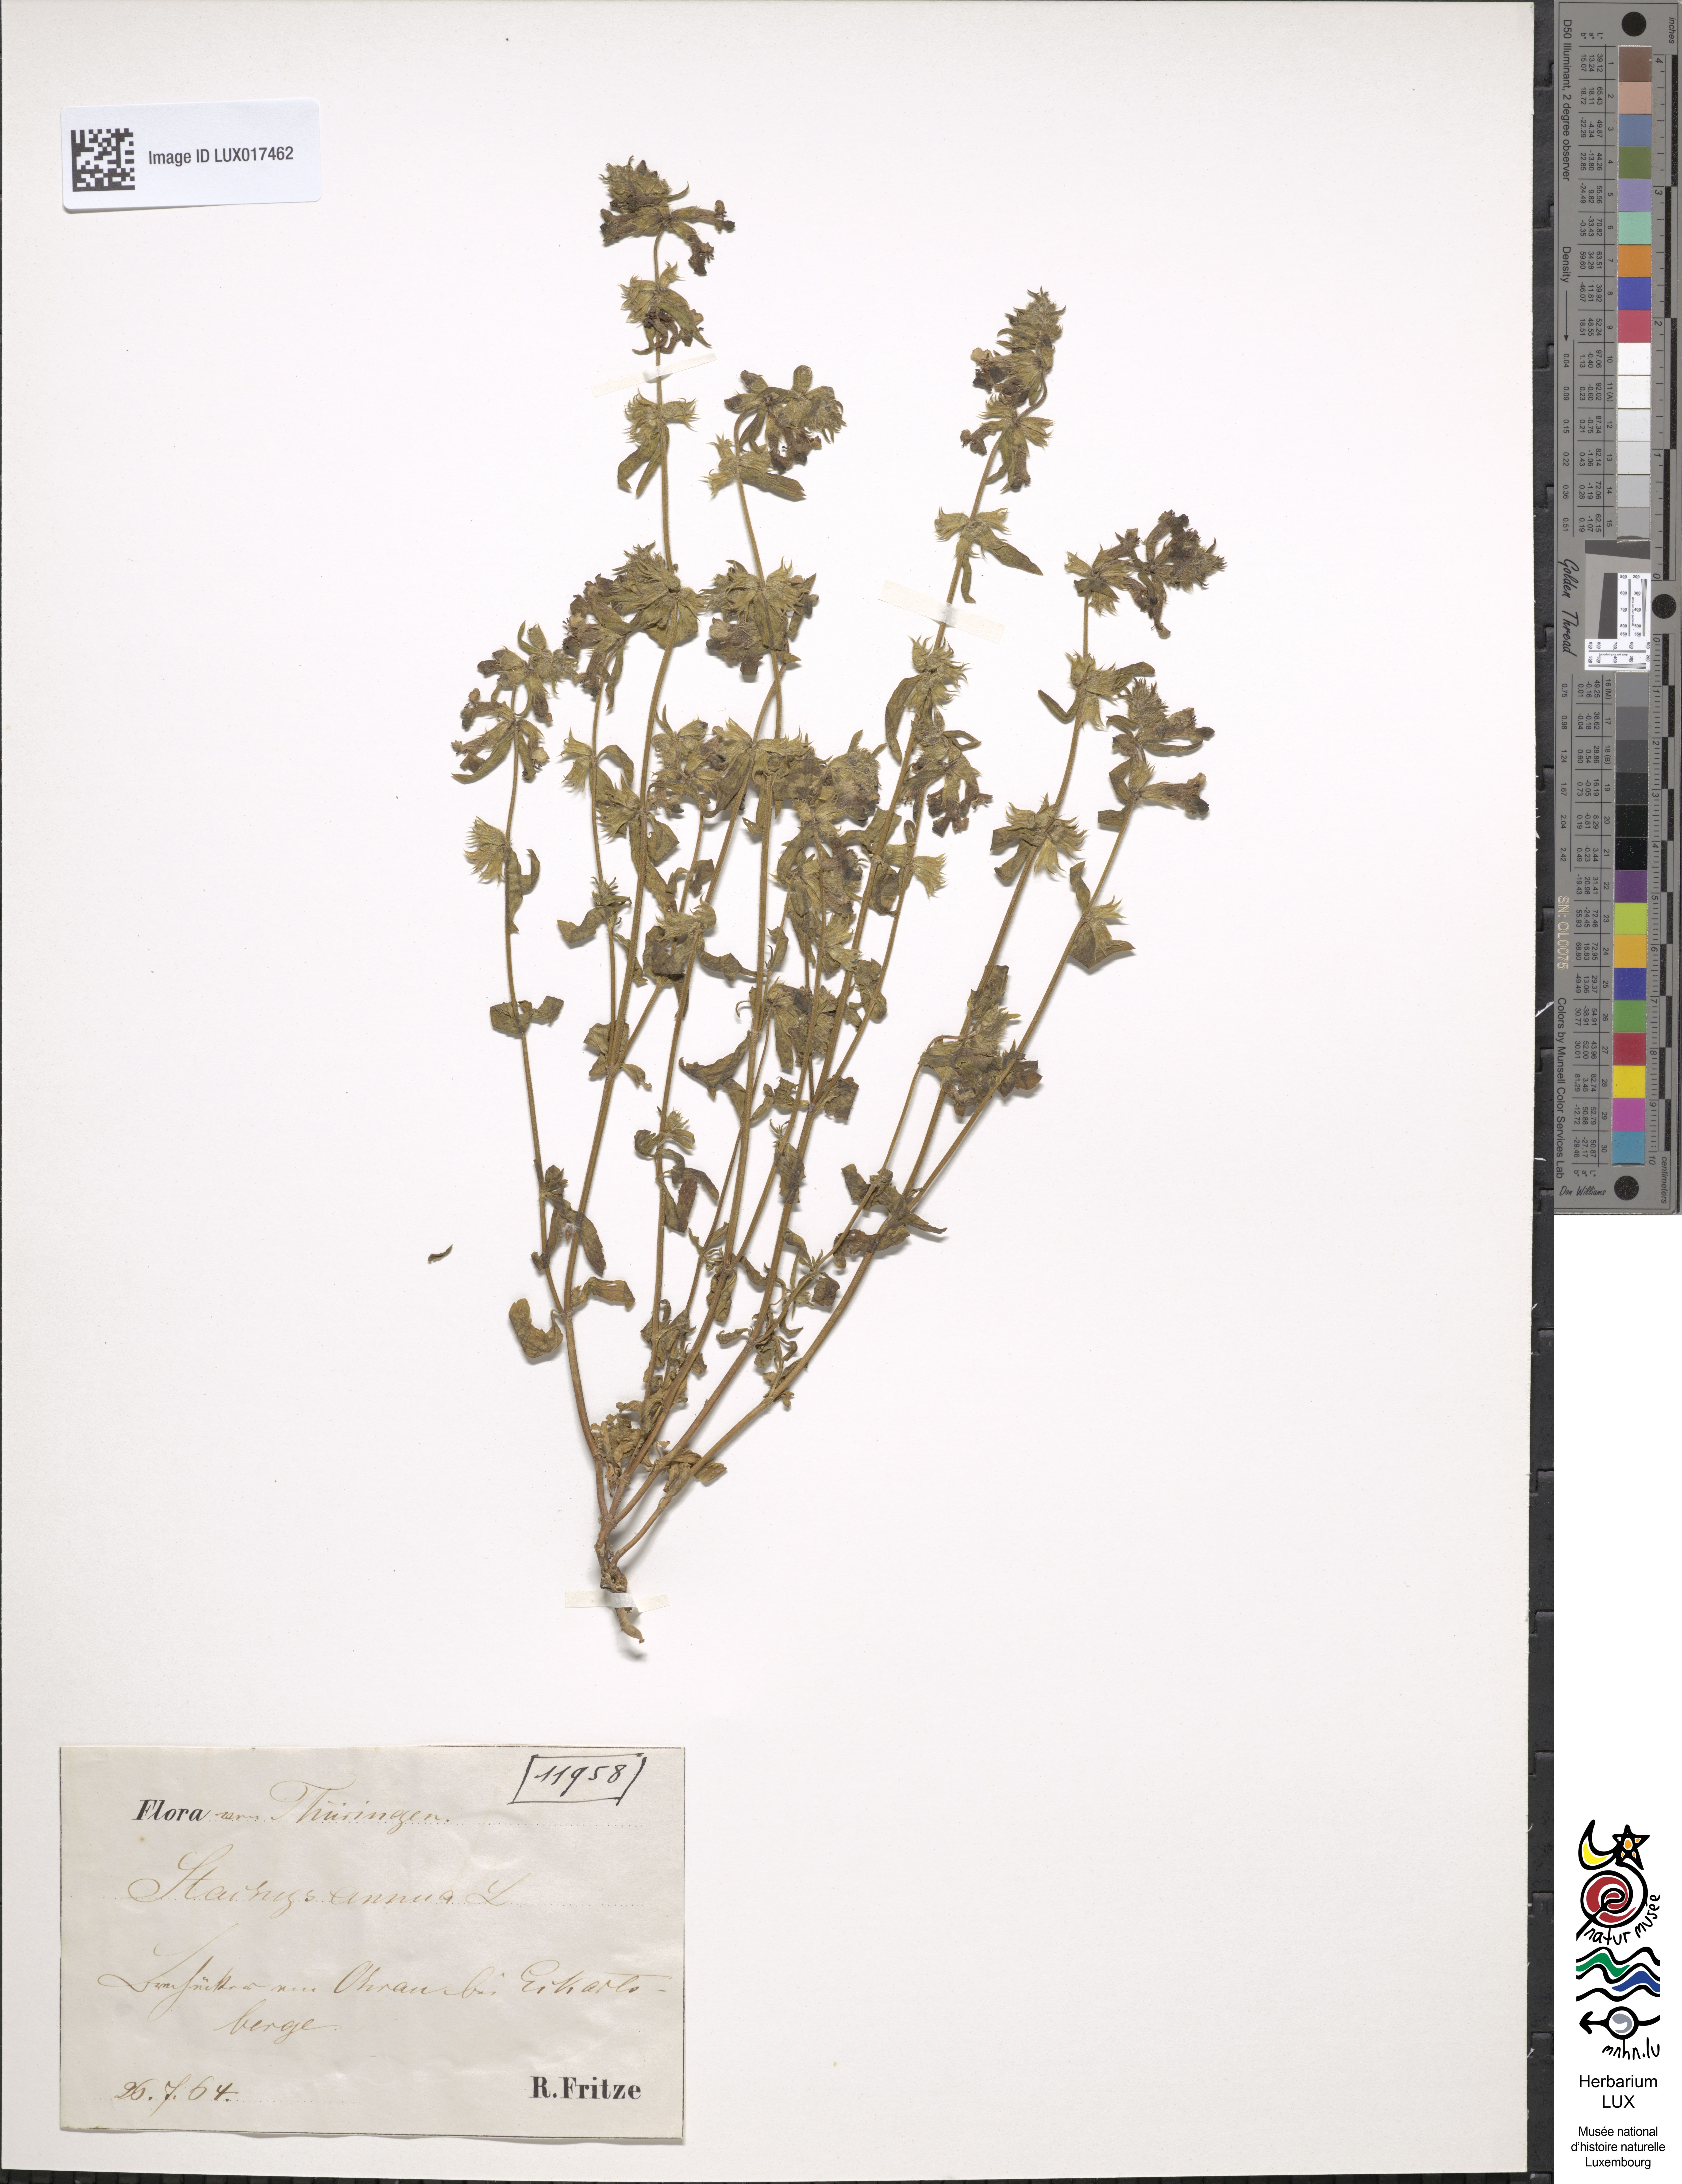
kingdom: Plantae
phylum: Tracheophyta
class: Magnoliopsida
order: Lamiales
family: Lamiaceae
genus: Stachys
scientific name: Stachys annua
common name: Annual yellow-woundwort
